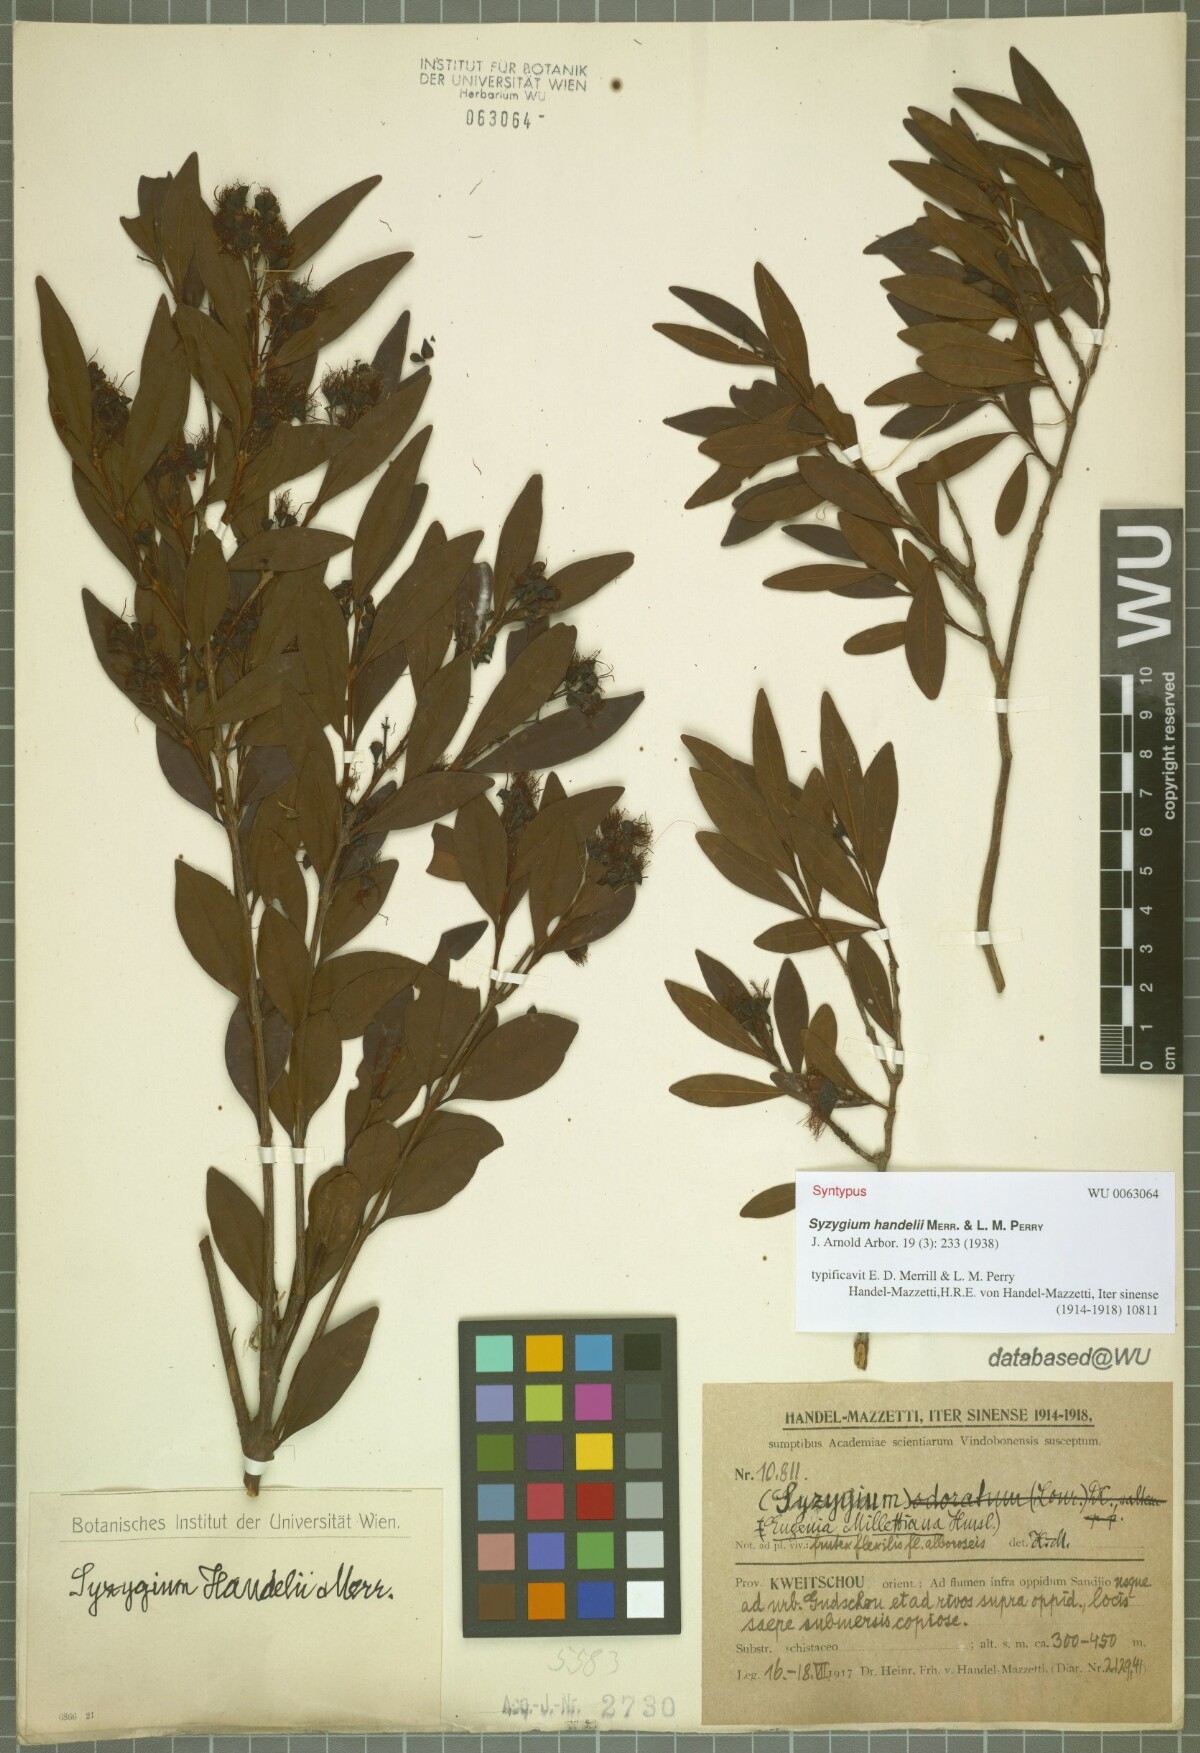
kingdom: Plantae
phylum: Tracheophyta
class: Magnoliopsida
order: Myrtales
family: Myrtaceae
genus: Syzygium
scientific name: Syzygium handelii
